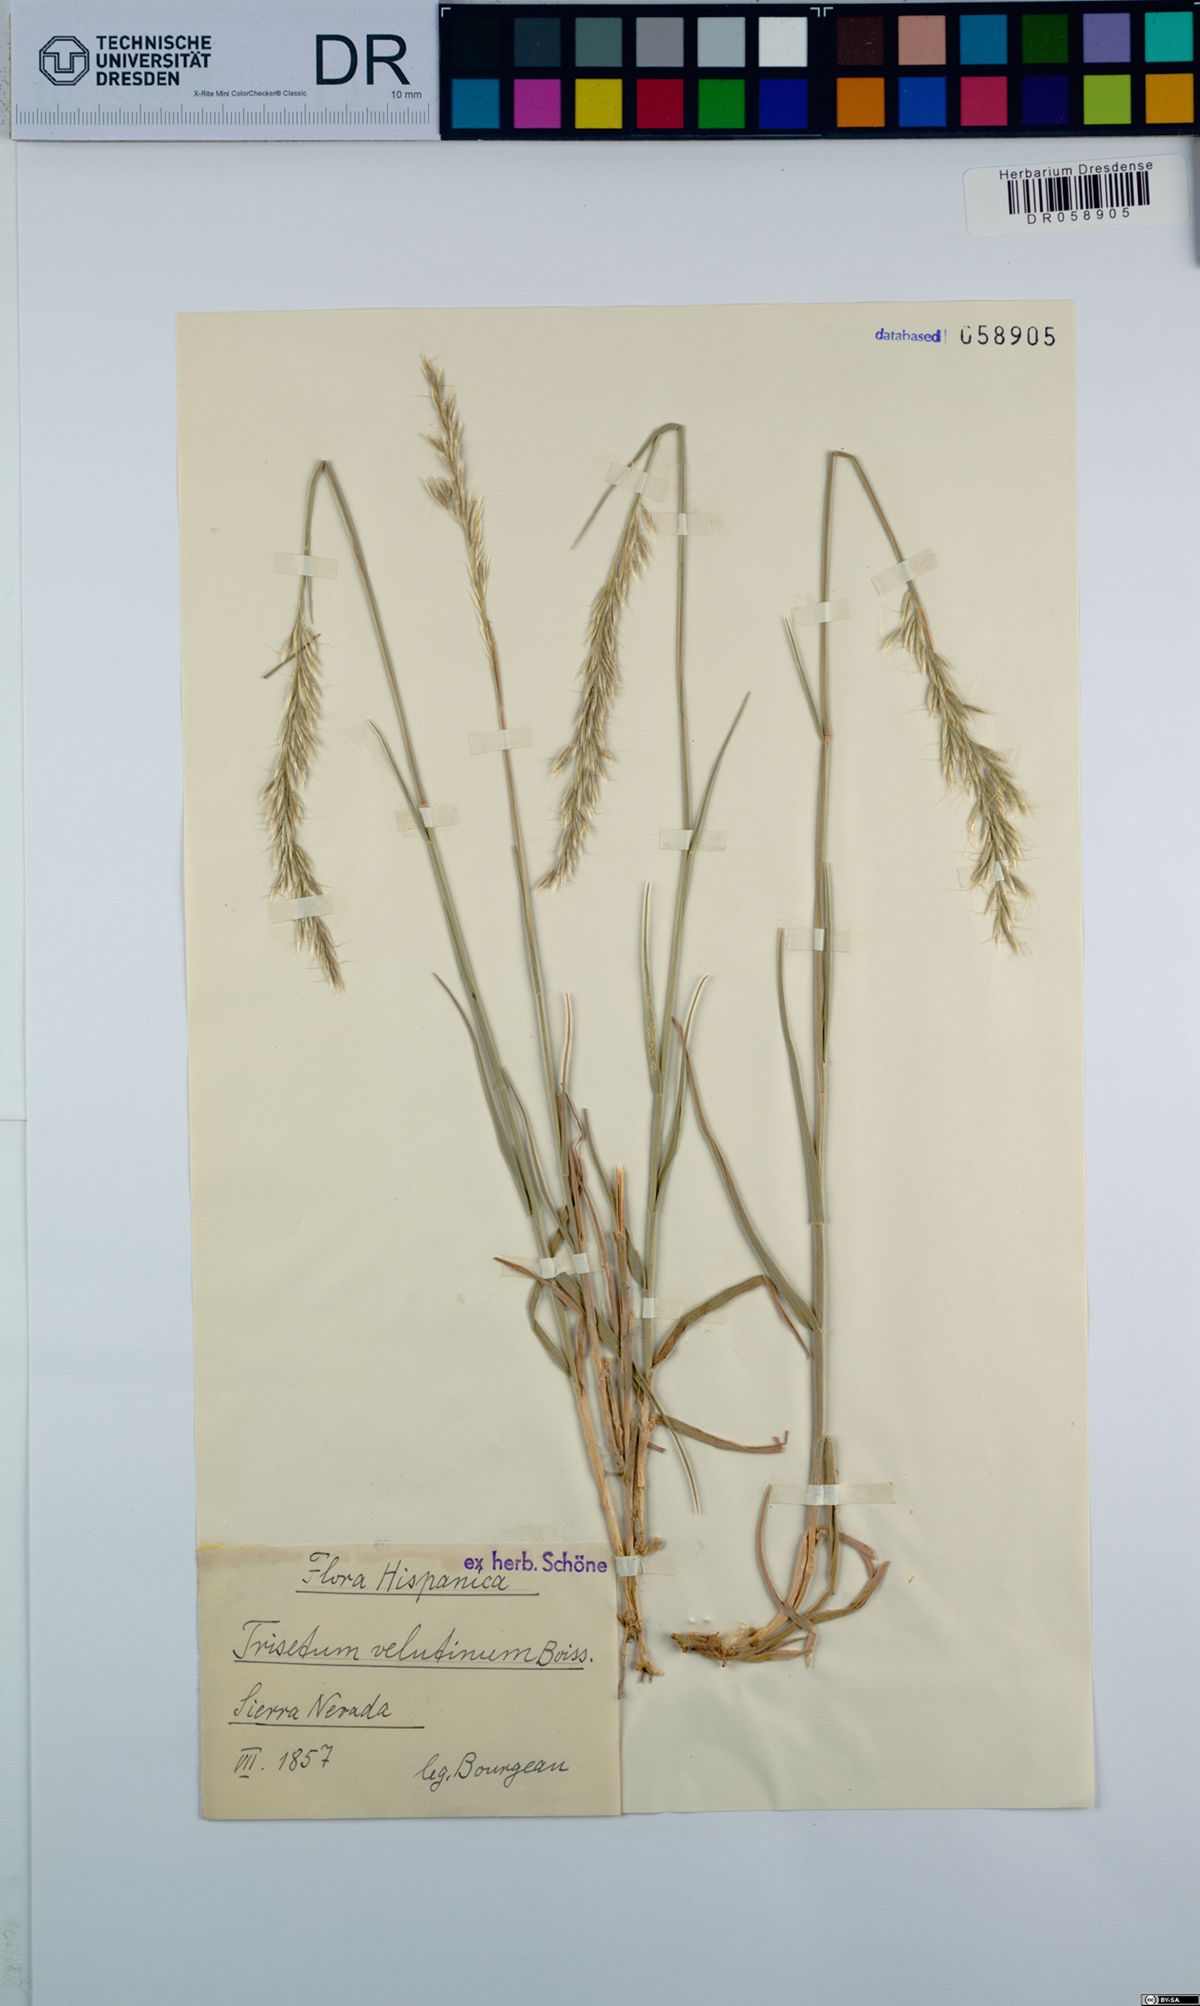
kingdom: Plantae
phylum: Tracheophyta
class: Liliopsida
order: Poales
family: Poaceae
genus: Trisetum
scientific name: Trisetum velutinum
